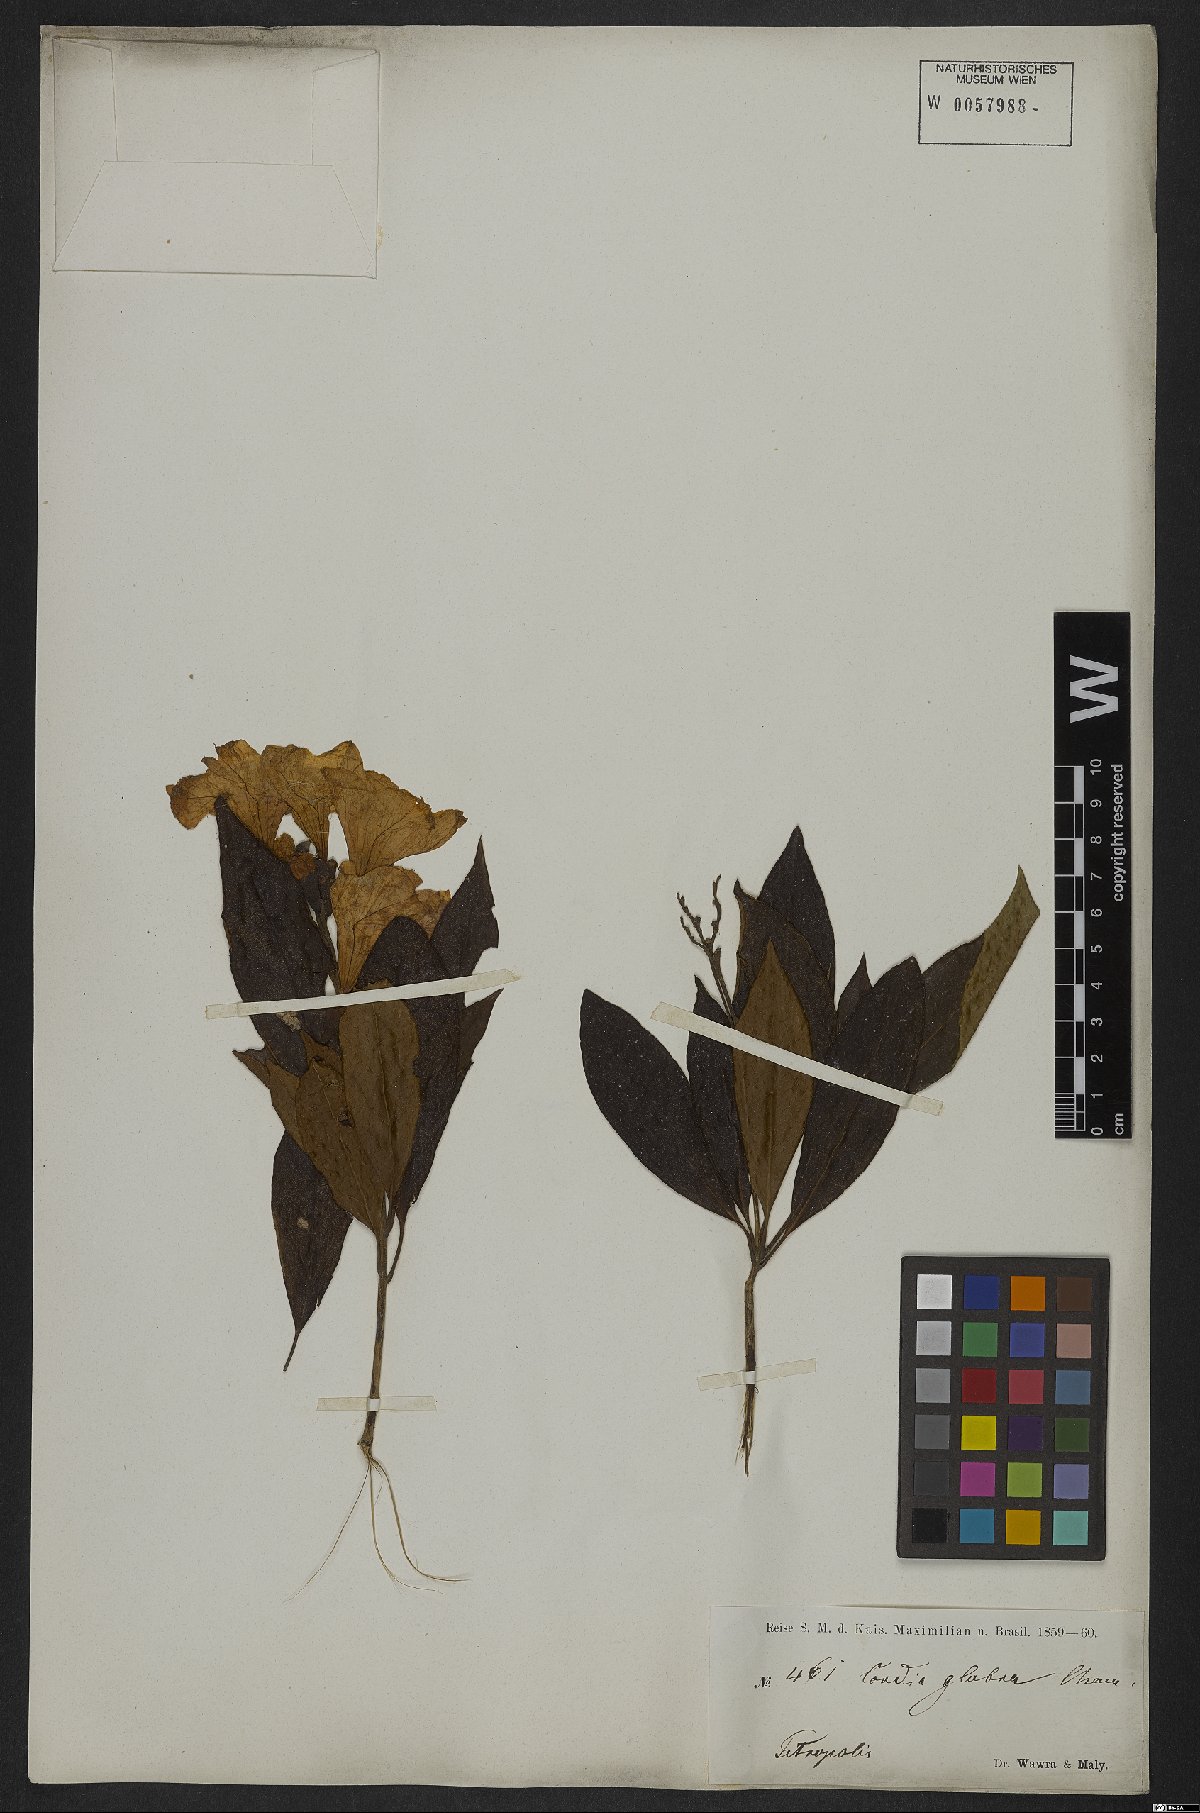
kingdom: Plantae
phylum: Tracheophyta
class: Magnoliopsida
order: Boraginales
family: Cordiaceae
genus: Cordia
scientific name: Cordia glabra
